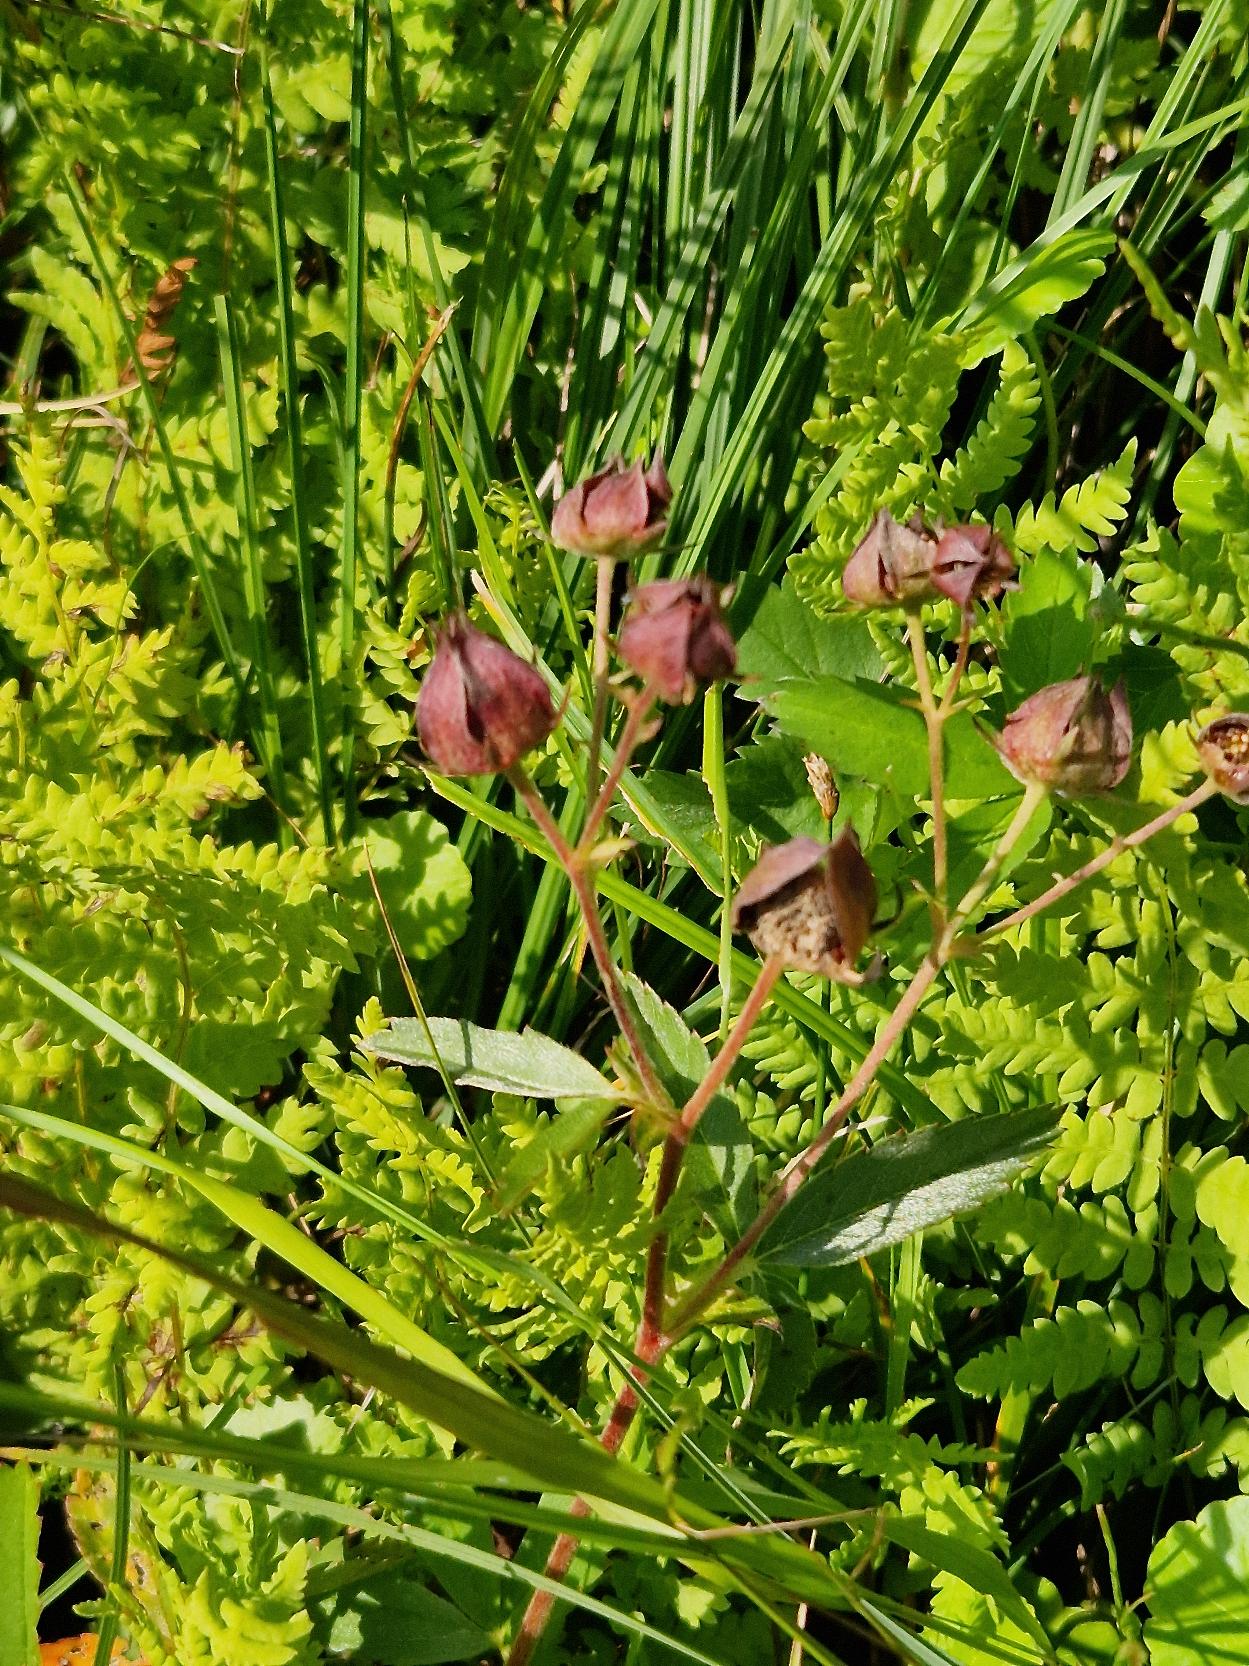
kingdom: Plantae
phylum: Tracheophyta
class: Magnoliopsida
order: Rosales
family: Rosaceae
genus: Comarum
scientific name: Comarum palustre
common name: Kragefod
